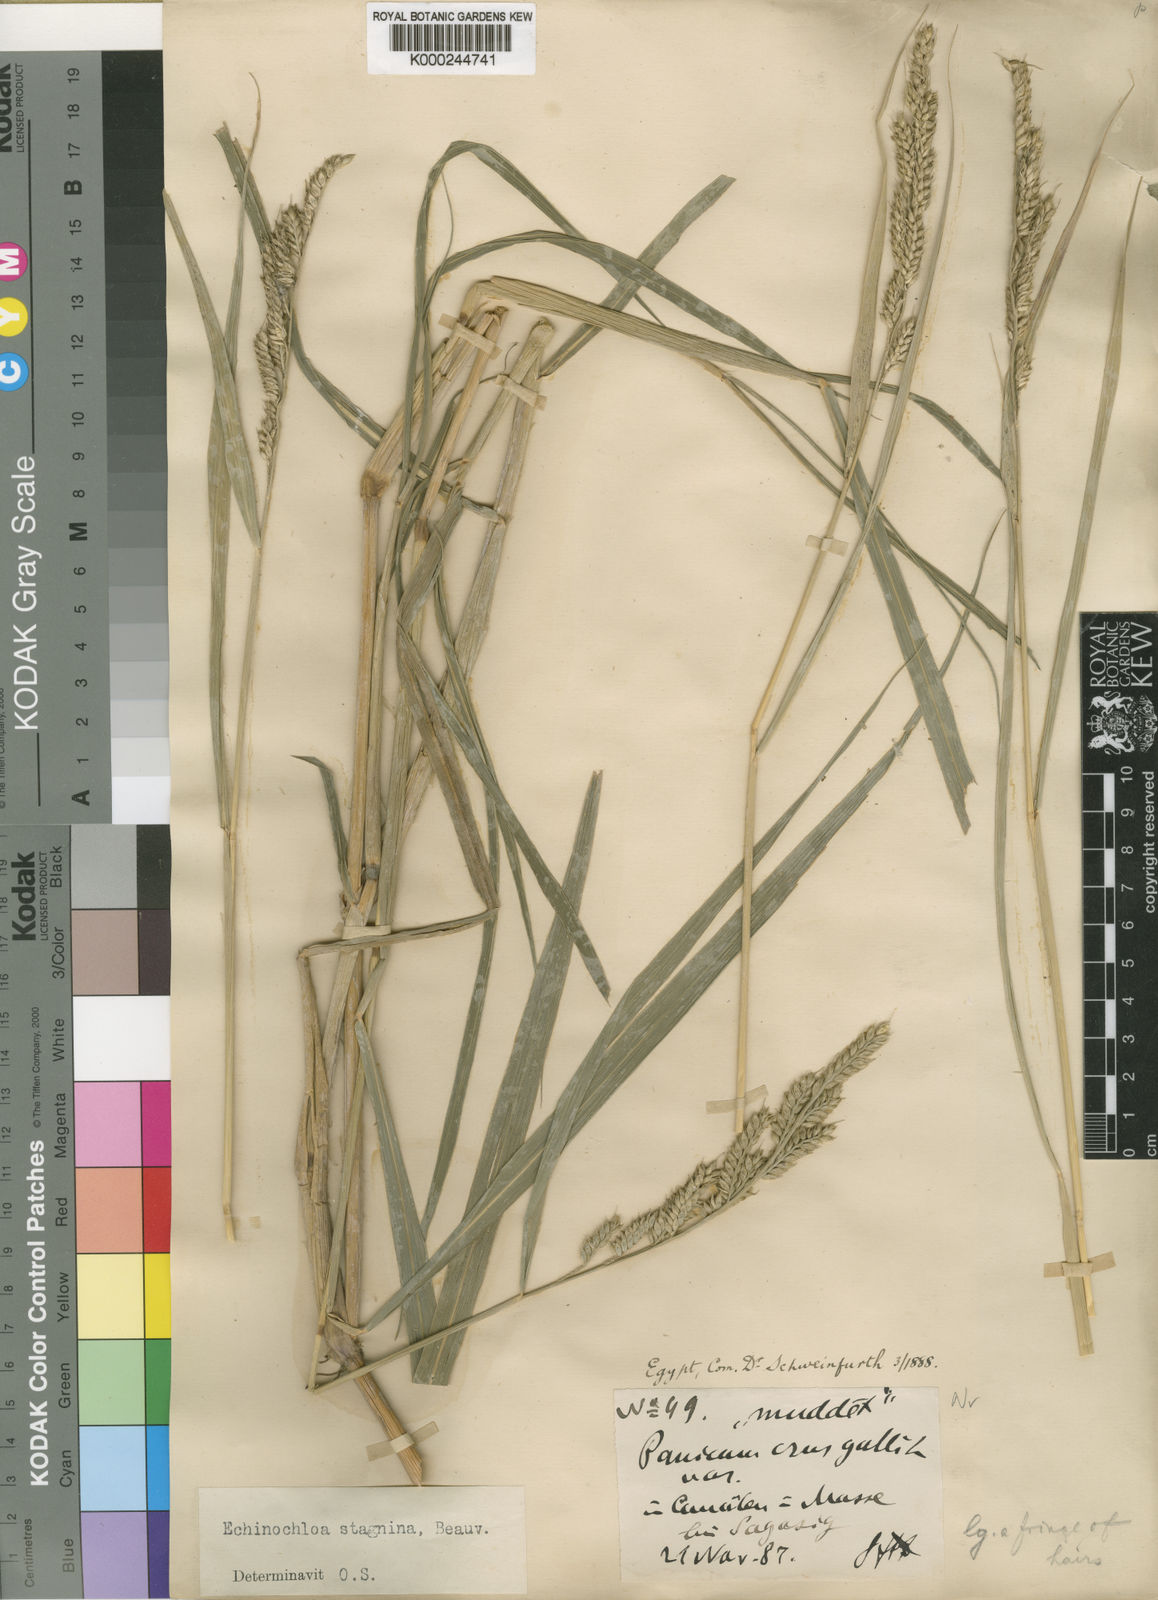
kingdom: Plantae
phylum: Tracheophyta
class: Liliopsida
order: Poales
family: Poaceae
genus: Echinochloa
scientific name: Echinochloa stagnina
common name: Burgu grass
